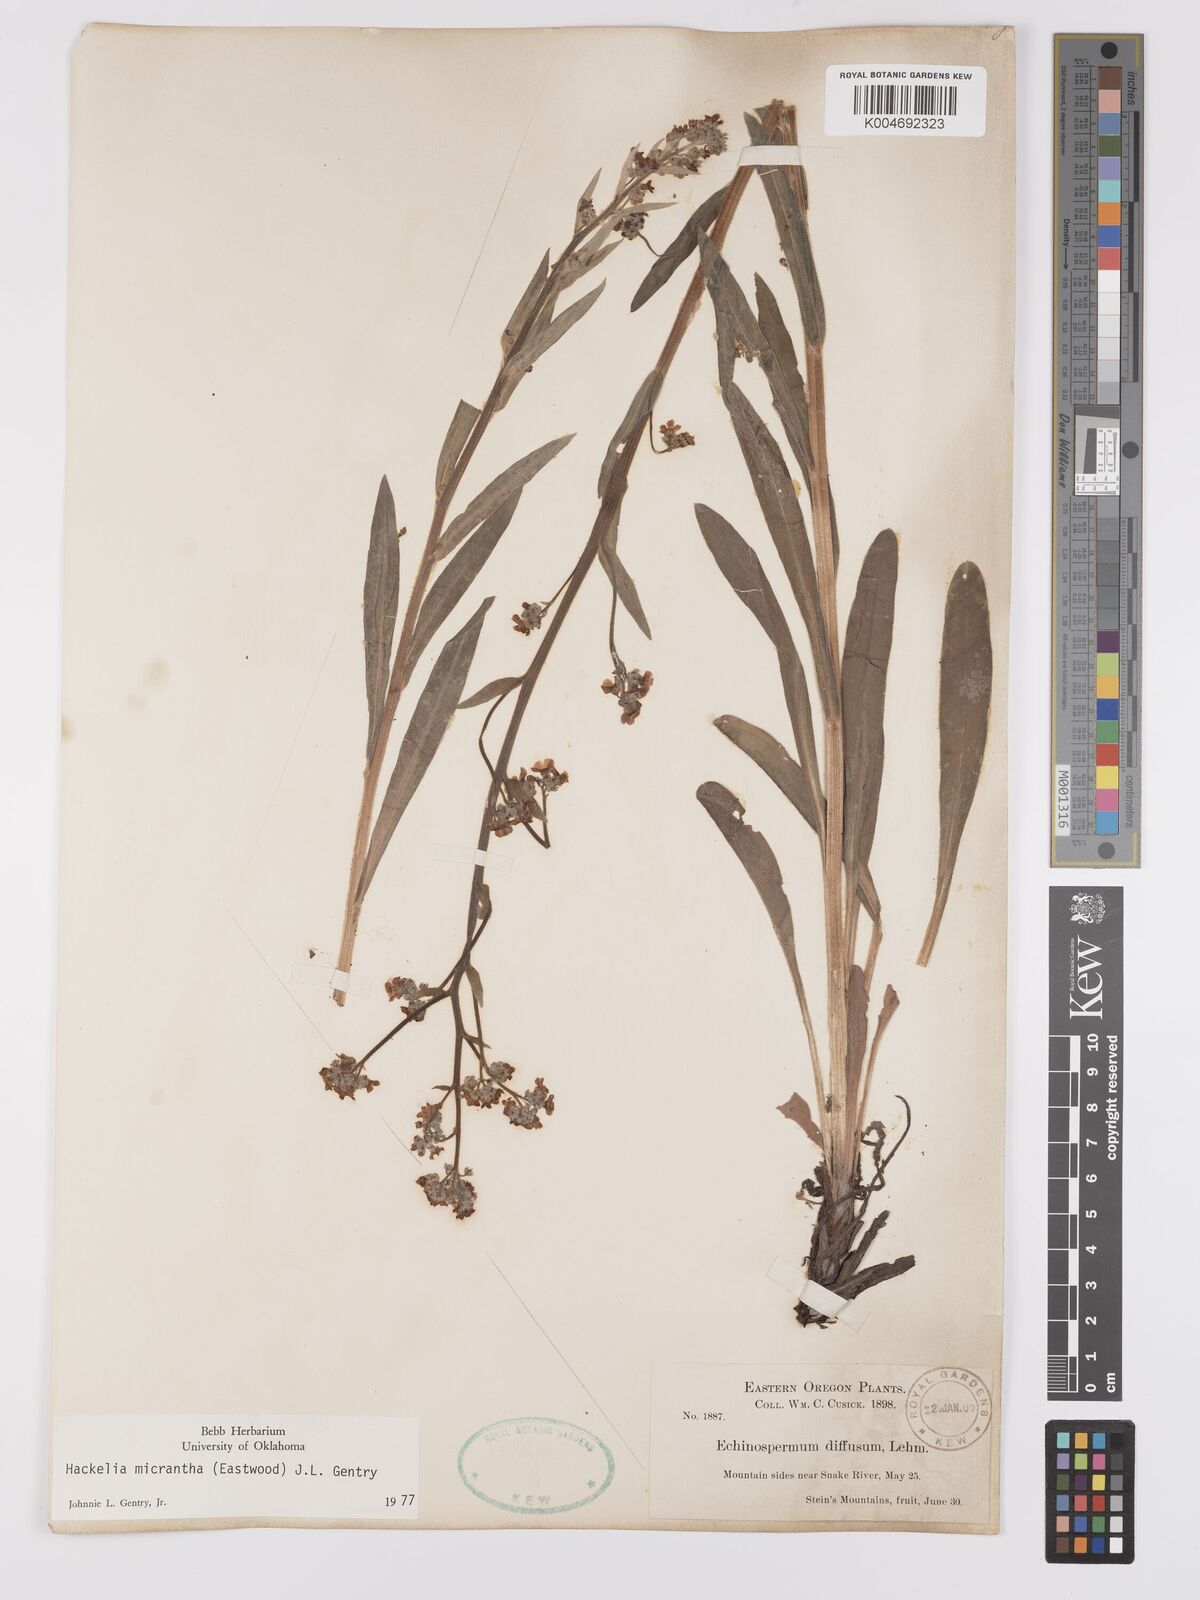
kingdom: Plantae
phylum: Tracheophyta
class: Magnoliopsida
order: Boraginales
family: Boraginaceae
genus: Hackelia
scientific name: Hackelia micrantha
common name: Meadow stickseed
